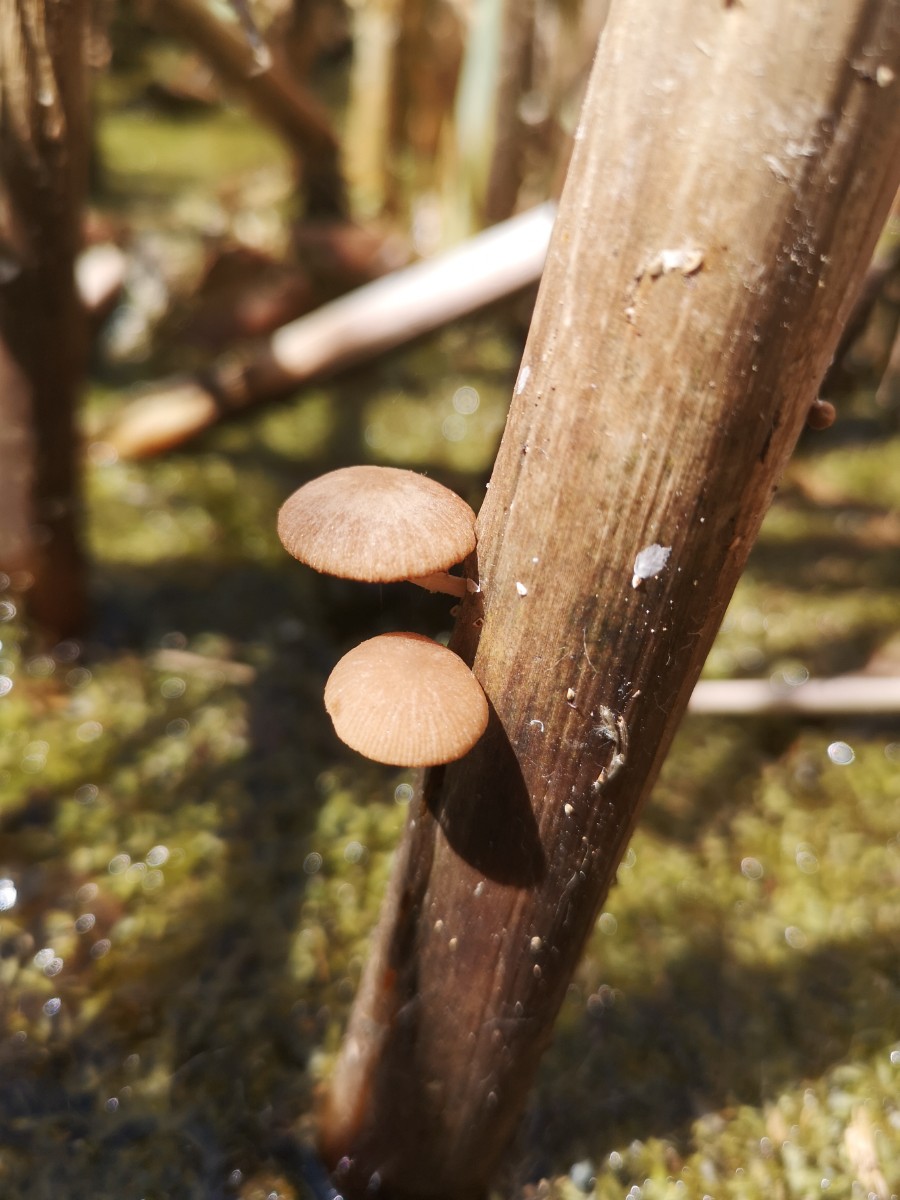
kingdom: Fungi
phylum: Basidiomycota
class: Agaricomycetes
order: Agaricales
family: Psathyrellaceae
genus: Candolleomyces
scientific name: Candolleomyces typhae
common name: dunhammer-mørkhat
